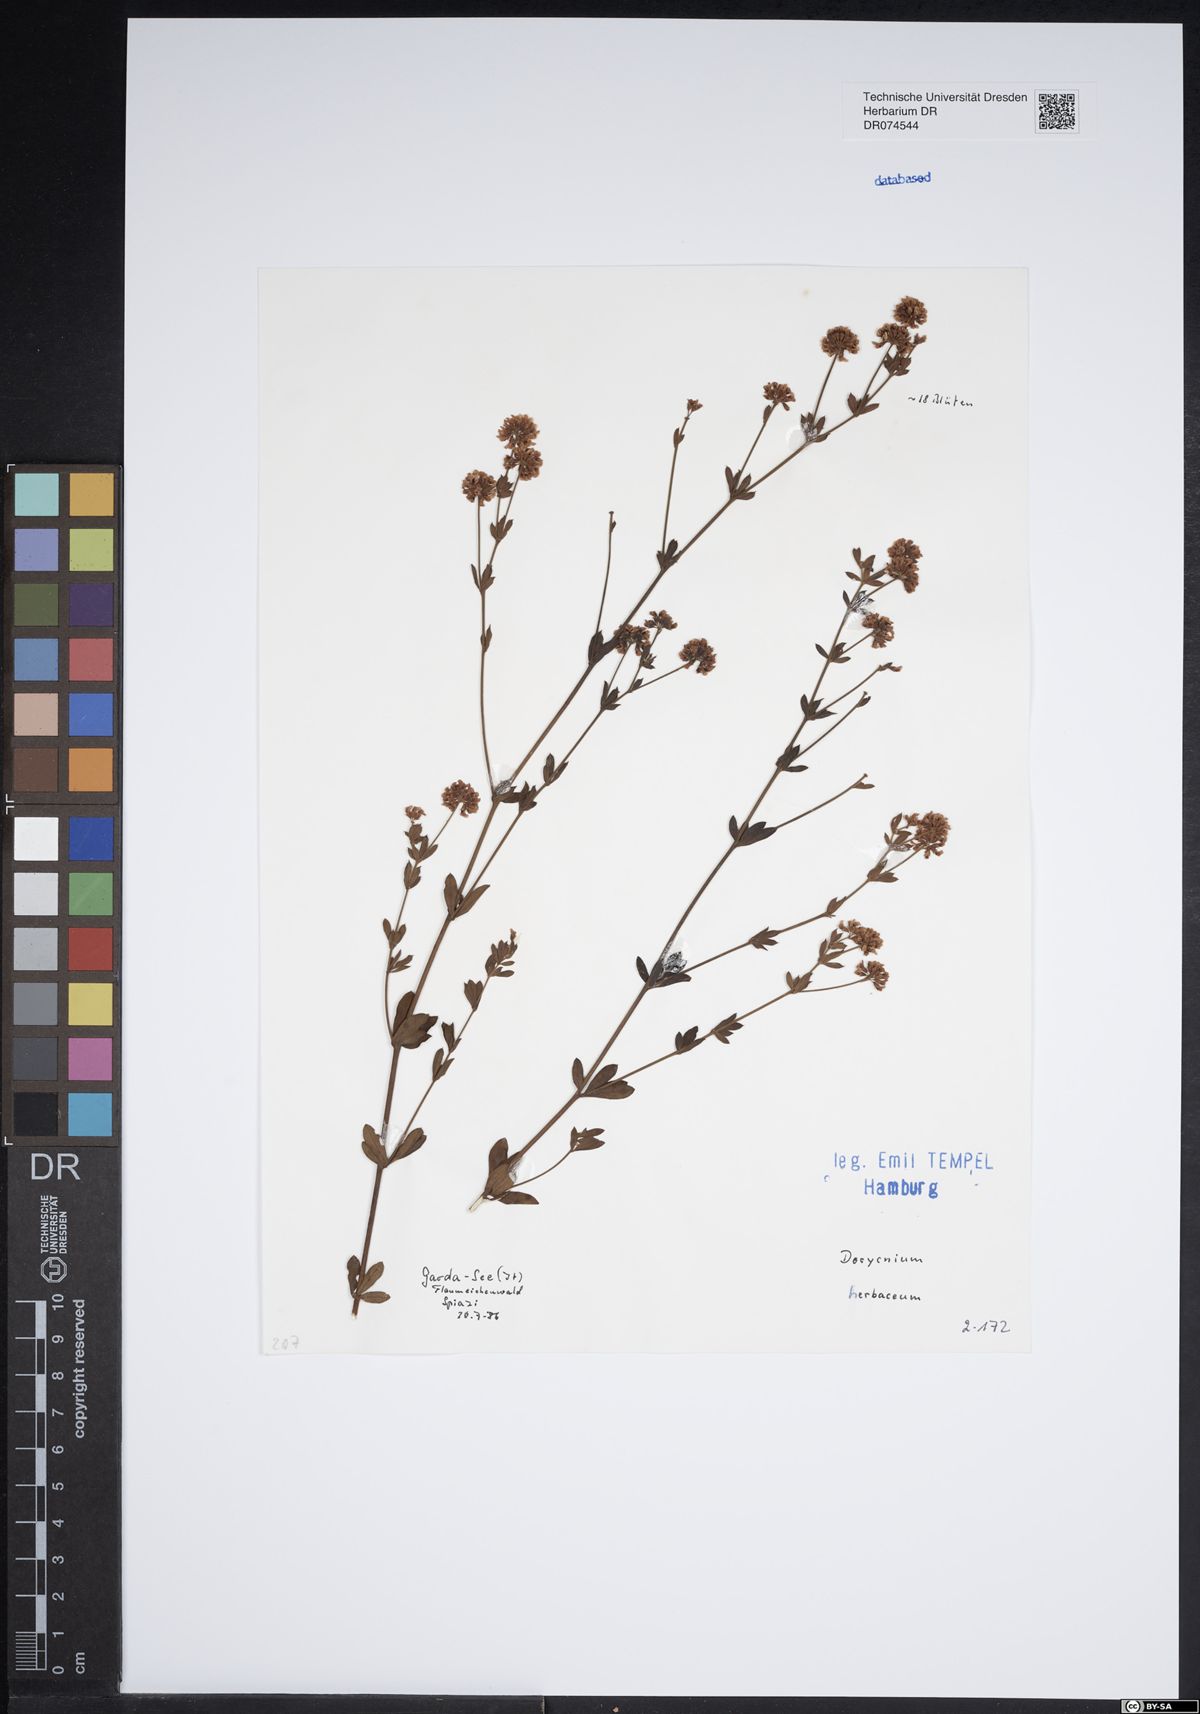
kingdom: Plantae
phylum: Tracheophyta
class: Magnoliopsida
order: Fabales
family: Fabaceae
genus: Lotus
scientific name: Lotus herbaceus
